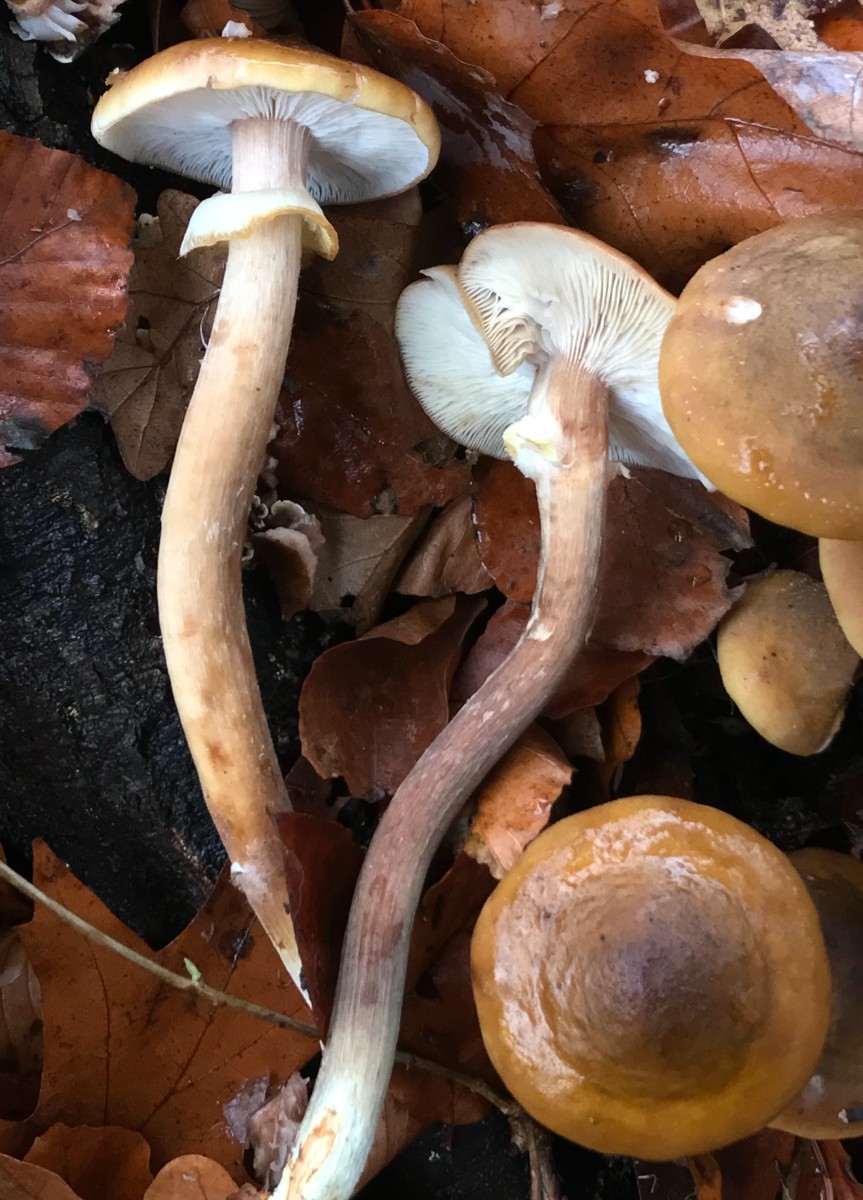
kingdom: Fungi
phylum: Basidiomycota
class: Agaricomycetes
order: Agaricales
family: Physalacriaceae
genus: Armillaria
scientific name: Armillaria mellea
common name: ægte honningsvamp
